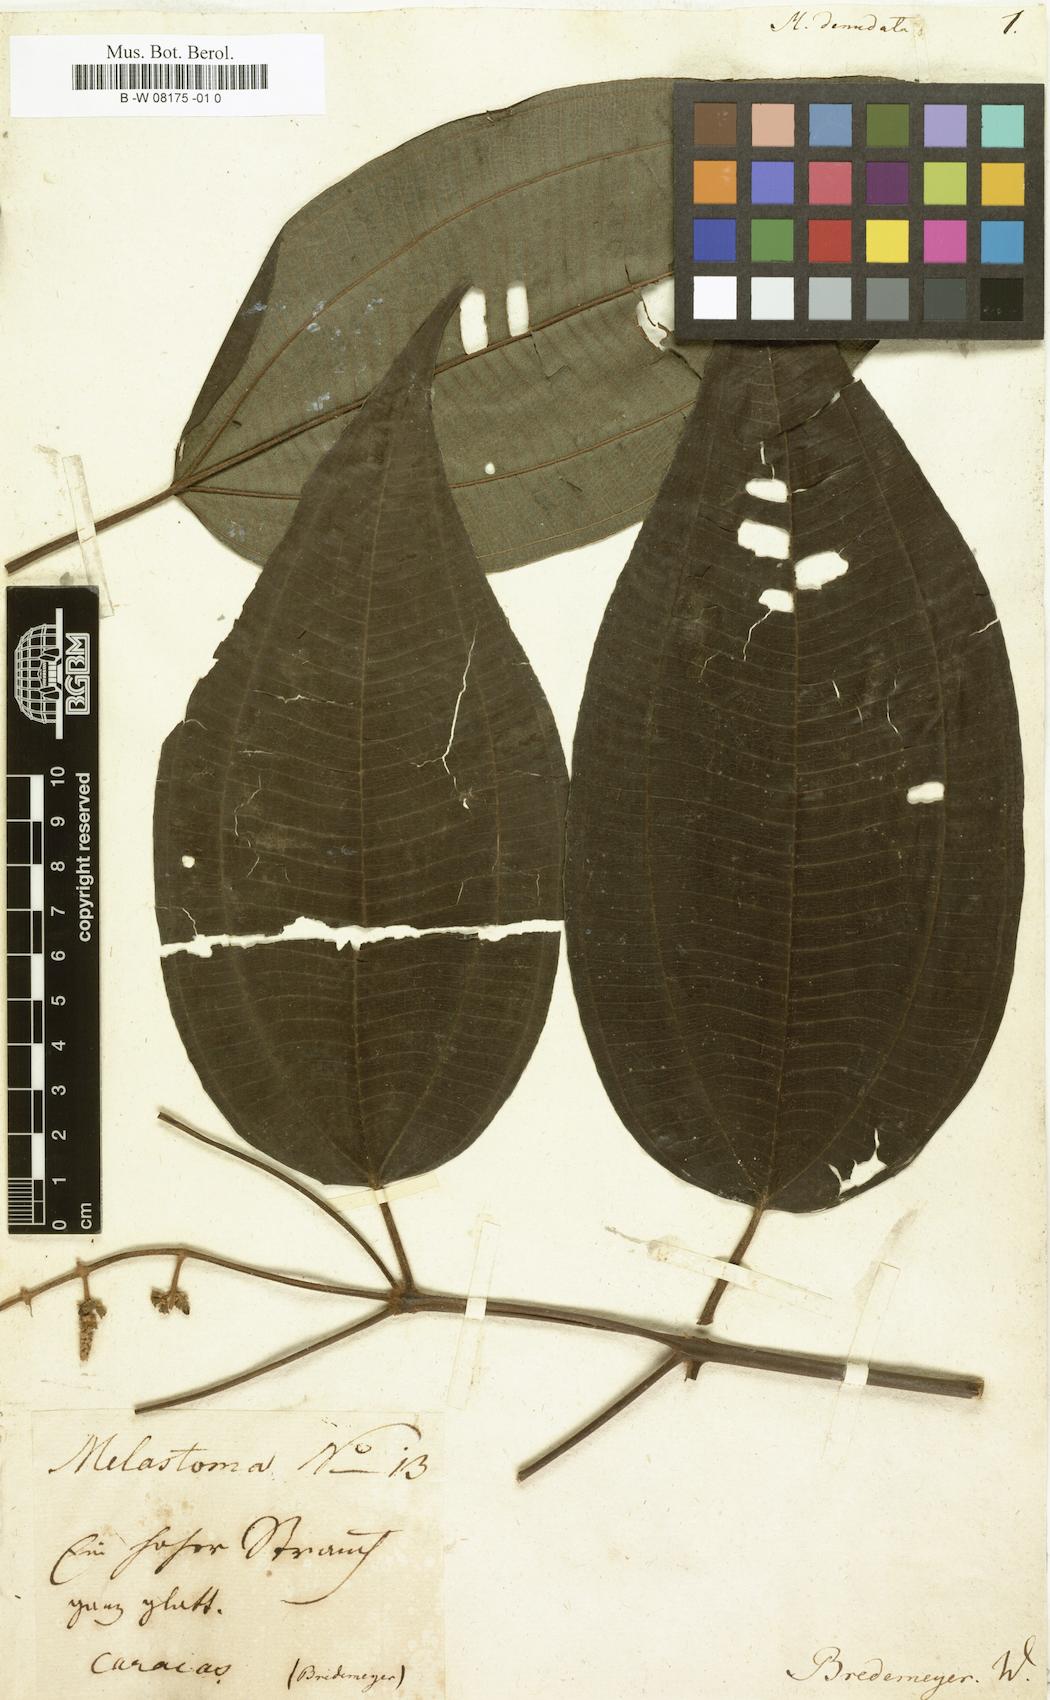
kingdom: Plantae
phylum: Tracheophyta
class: Magnoliopsida
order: Myrtales
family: Melastomataceae
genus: Miconia
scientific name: Miconia
